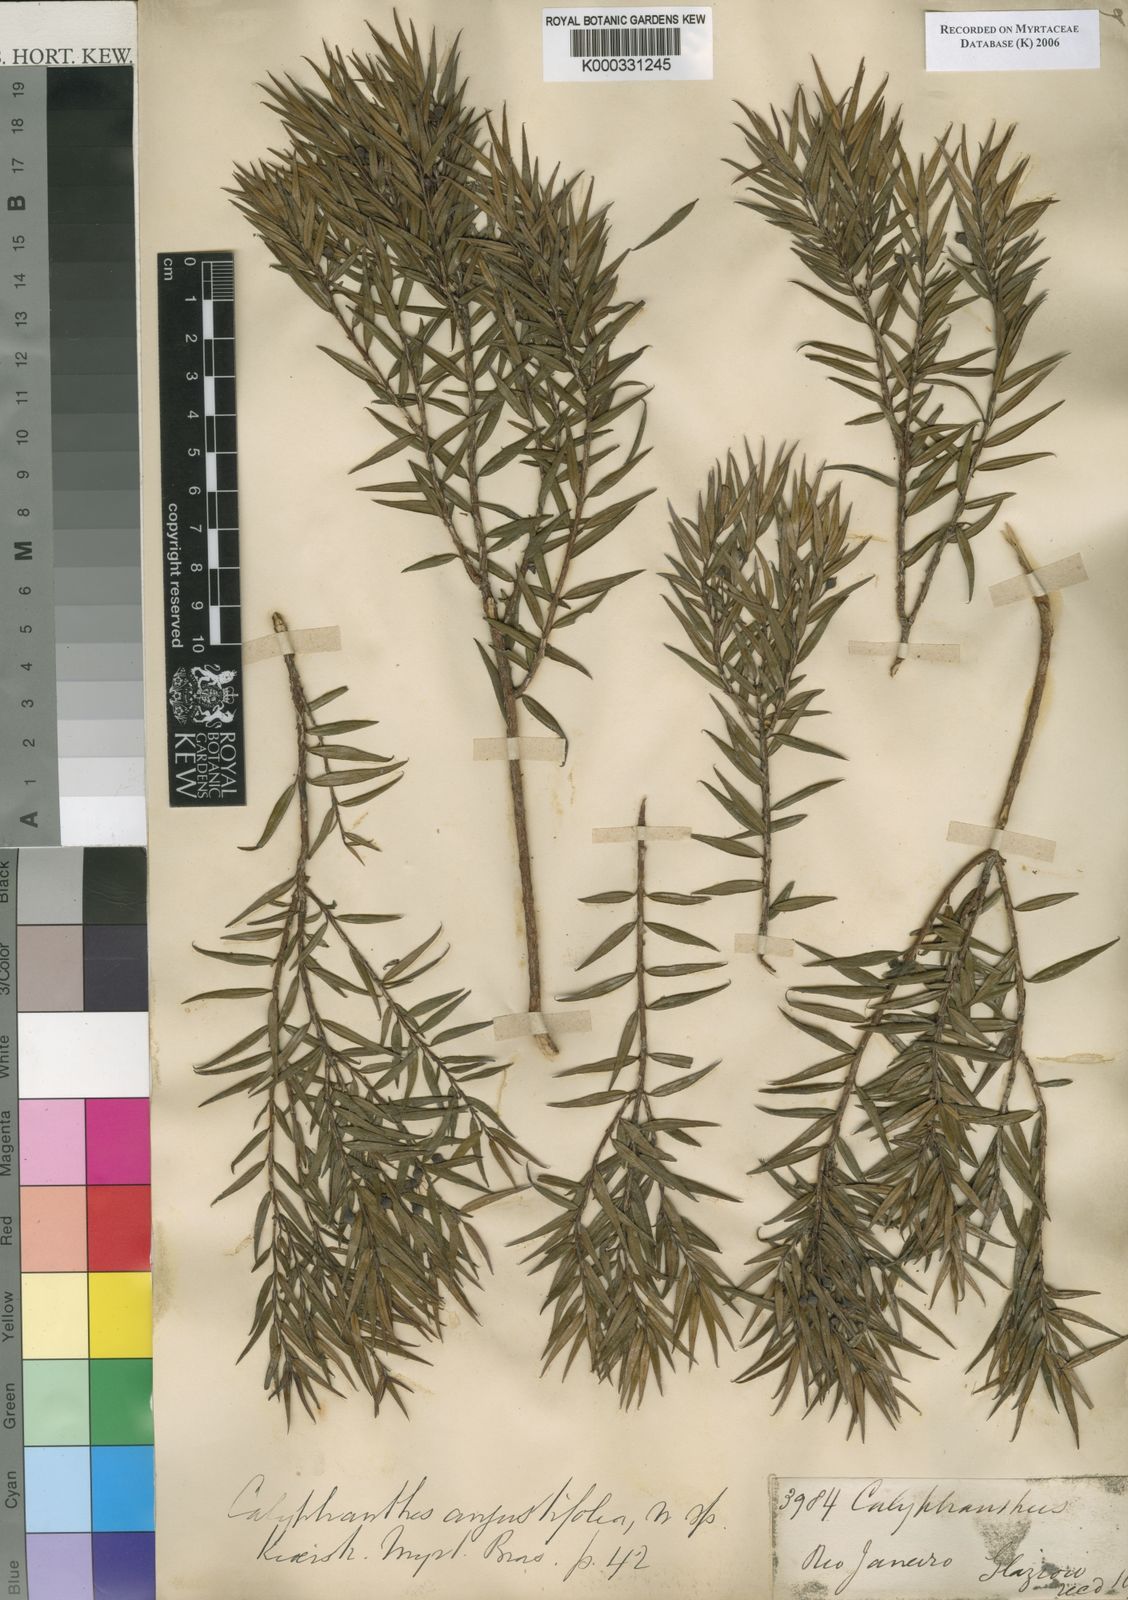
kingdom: Plantae
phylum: Tracheophyta
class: Magnoliopsida
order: Myrtales
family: Myrtaceae
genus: Myrcia
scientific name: Myrcia uncinata
